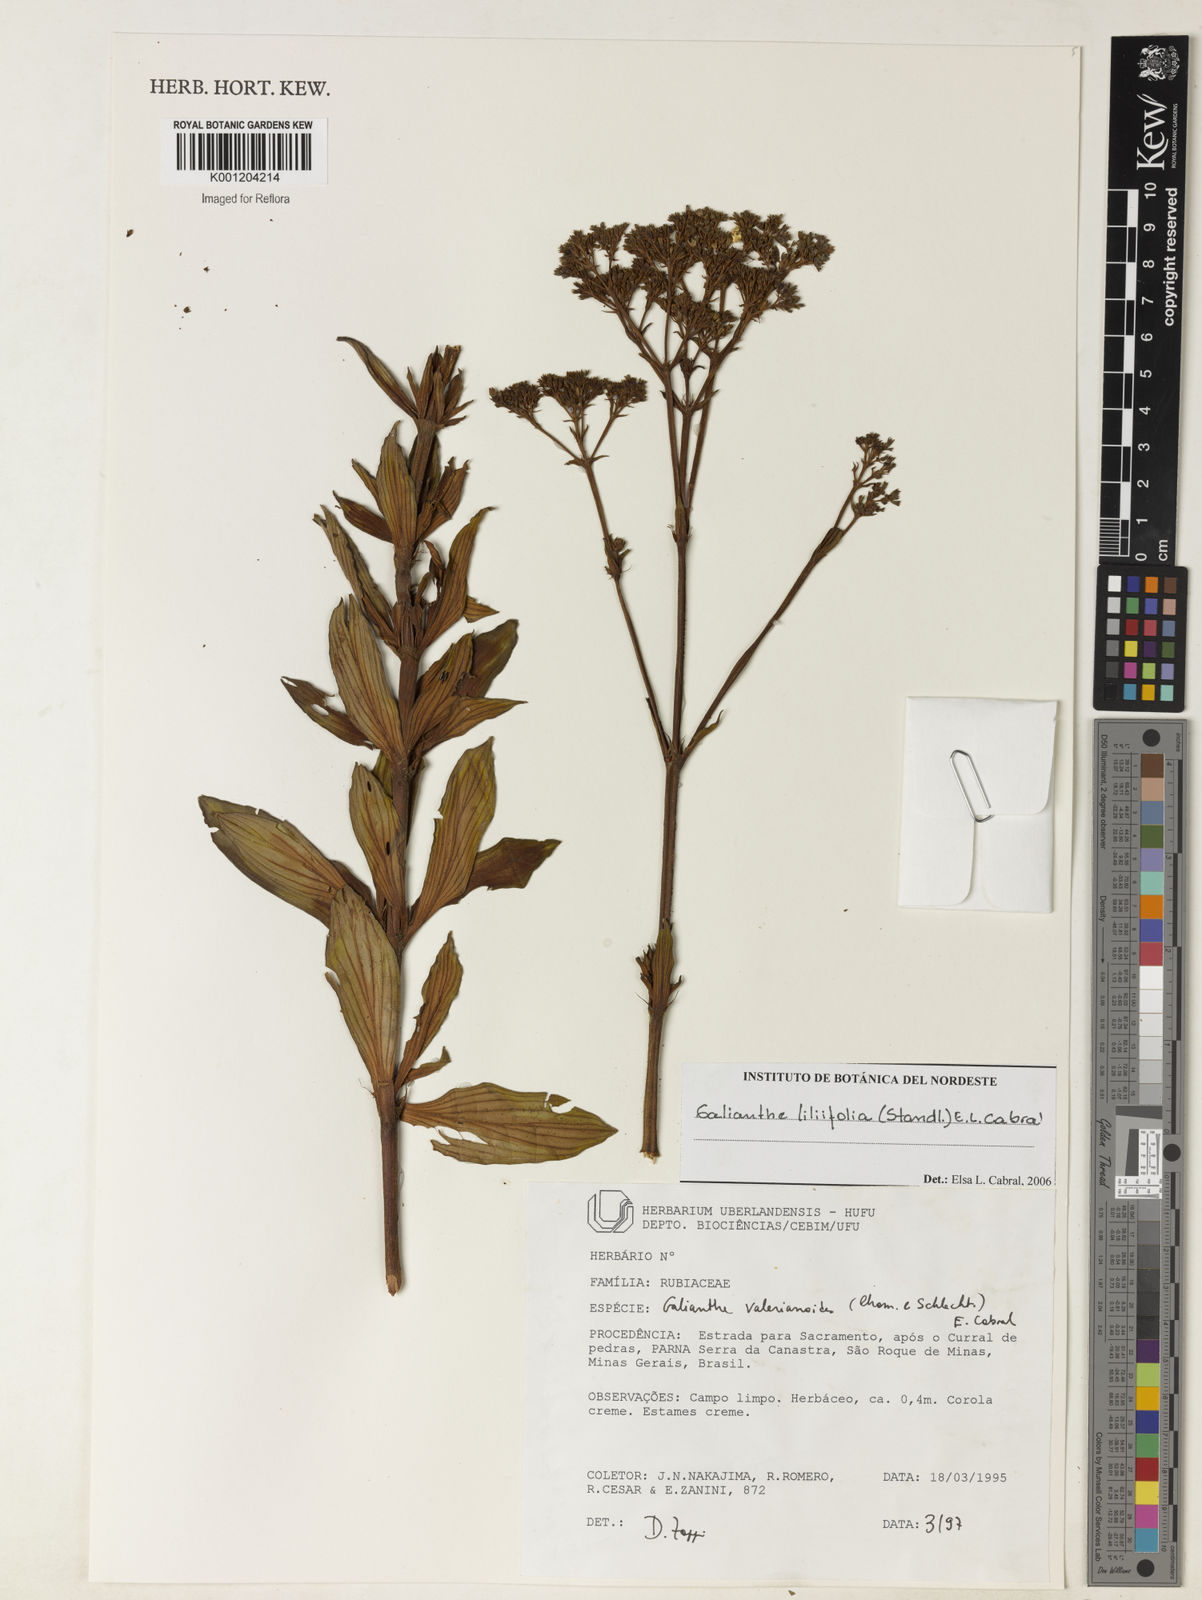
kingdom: Plantae
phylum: Tracheophyta
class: Magnoliopsida
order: Gentianales
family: Rubiaceae
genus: Galianthe
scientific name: Galianthe liliifolia
